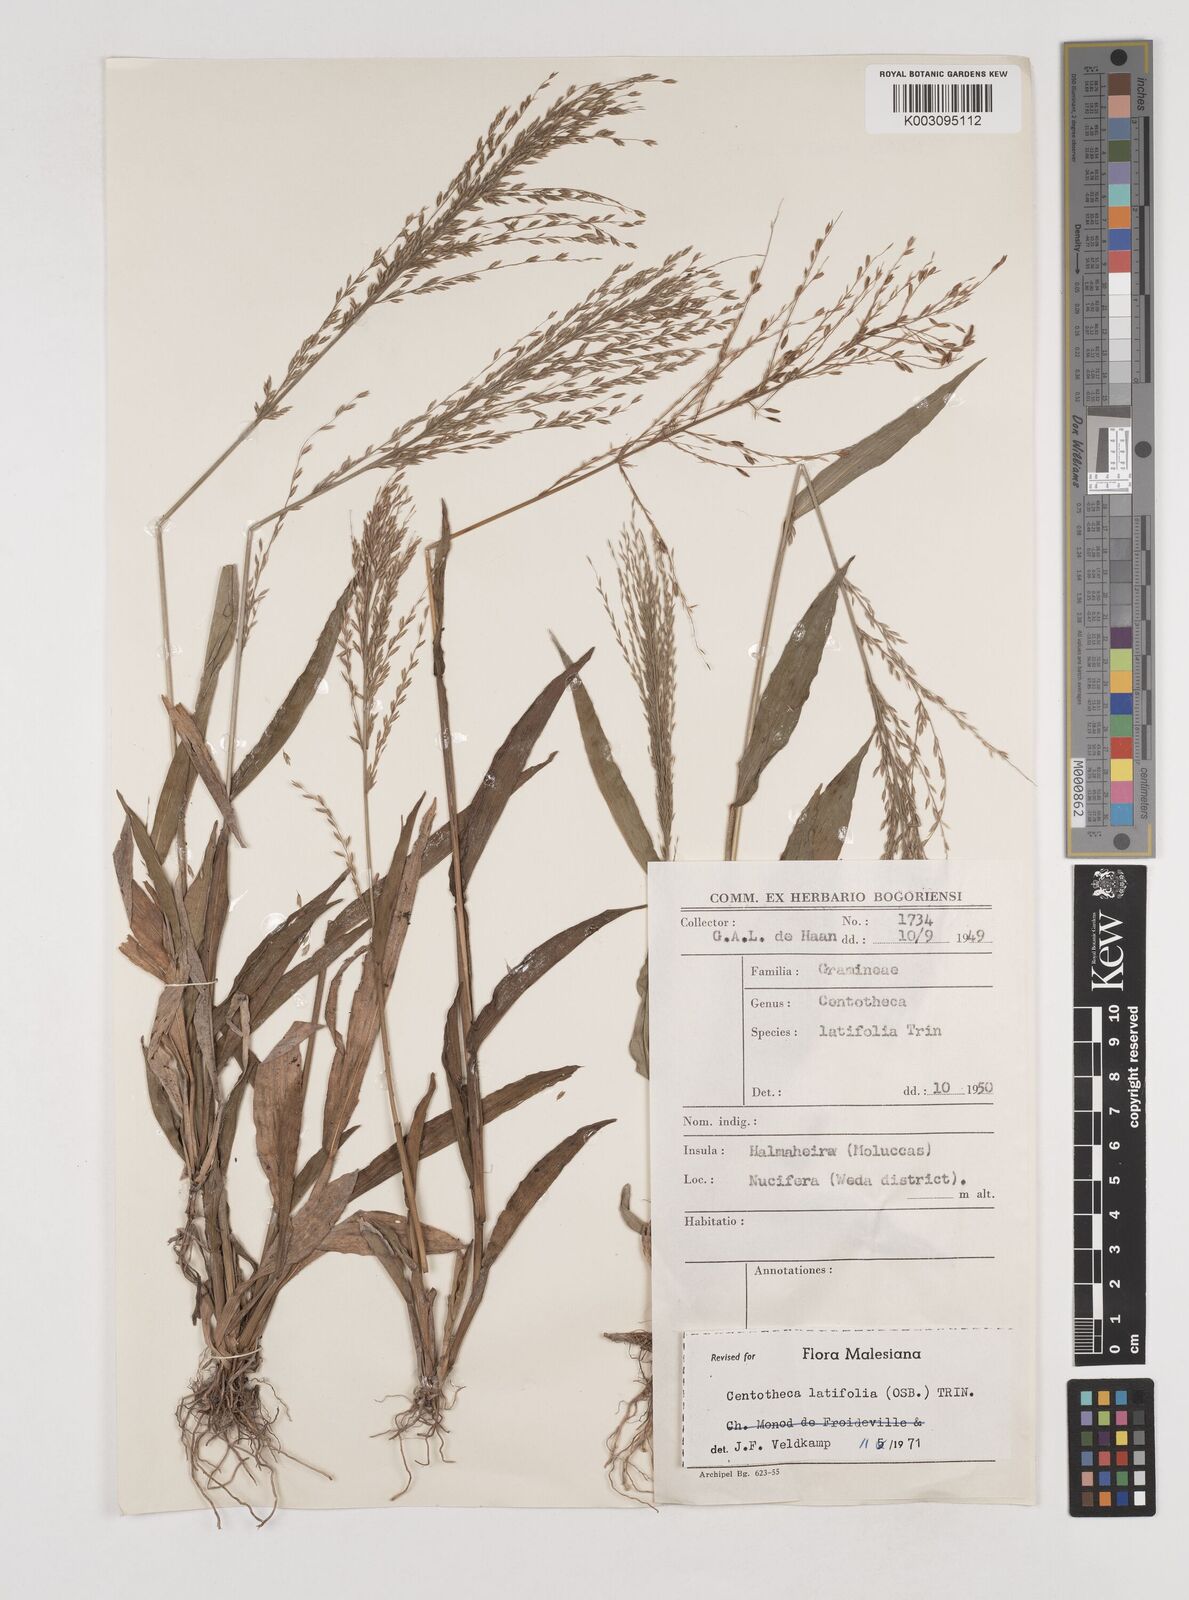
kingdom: Plantae
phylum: Tracheophyta
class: Liliopsida
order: Poales
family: Poaceae
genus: Centotheca
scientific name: Centotheca lappacea
